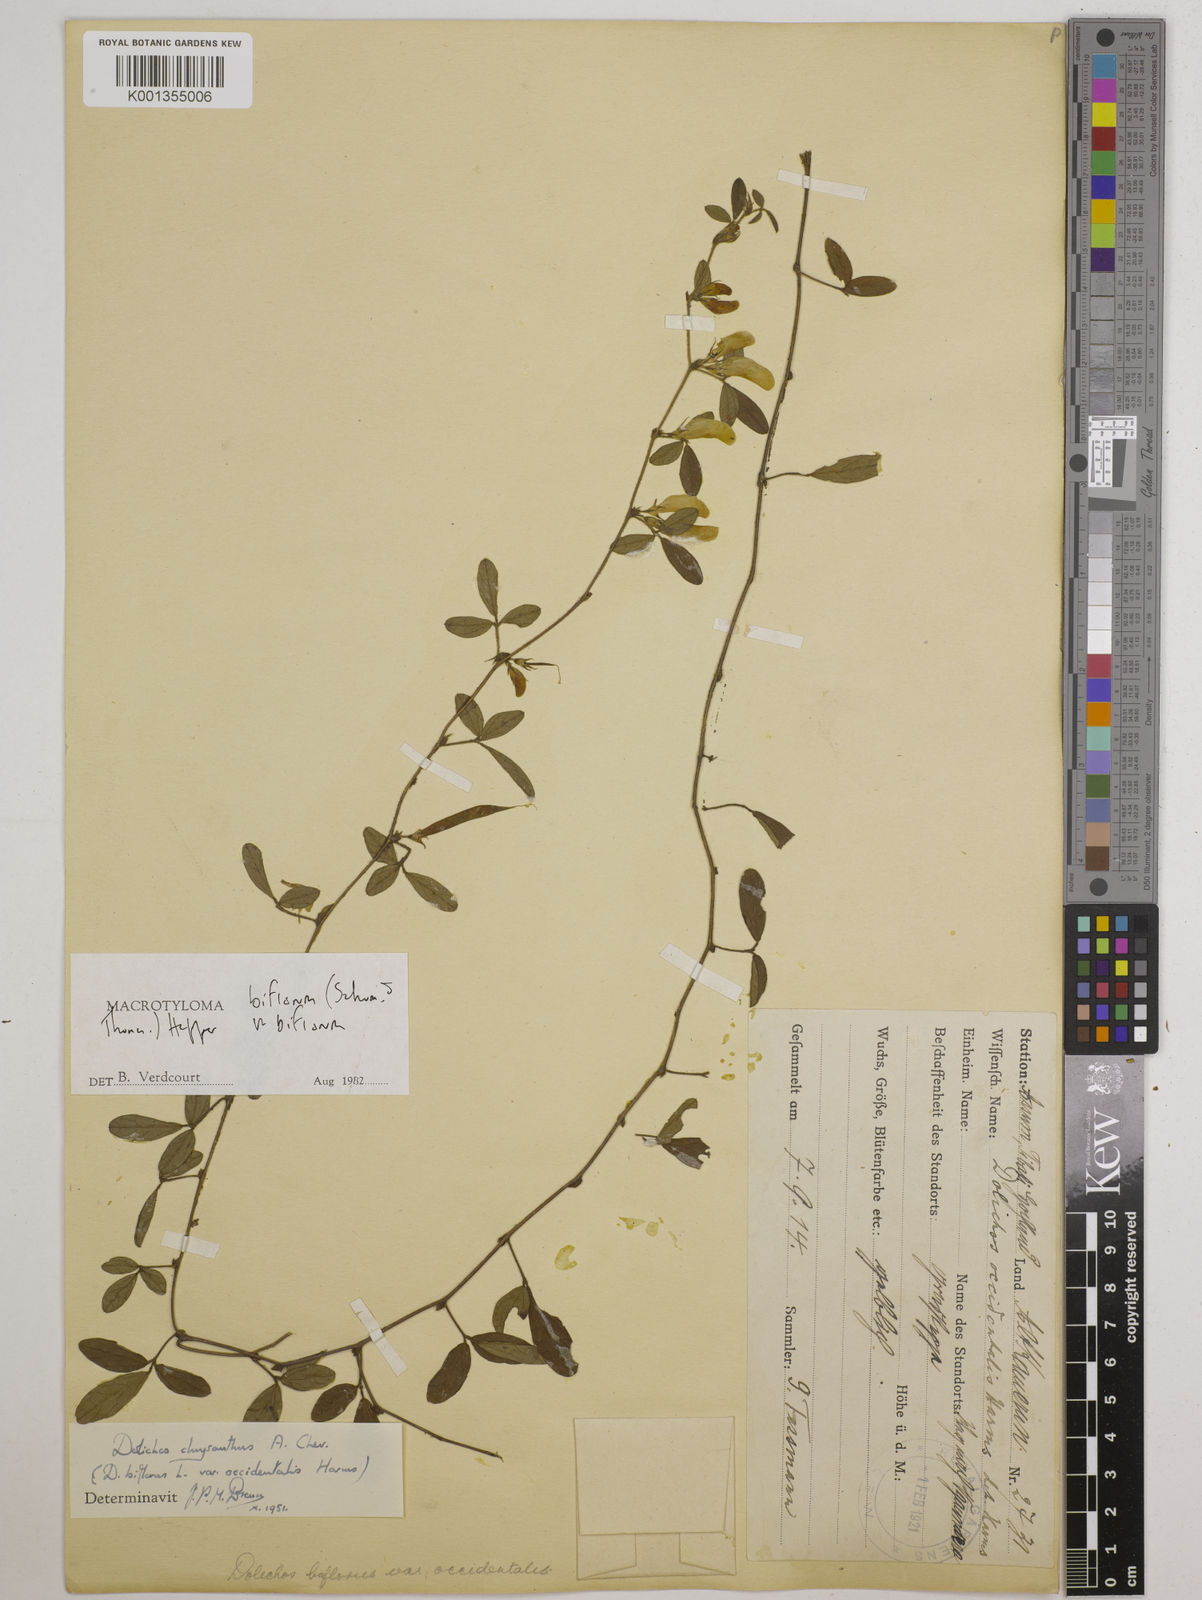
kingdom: Plantae
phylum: Tracheophyta
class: Magnoliopsida
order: Fabales
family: Fabaceae
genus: Macrotyloma
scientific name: Macrotyloma biflorum
